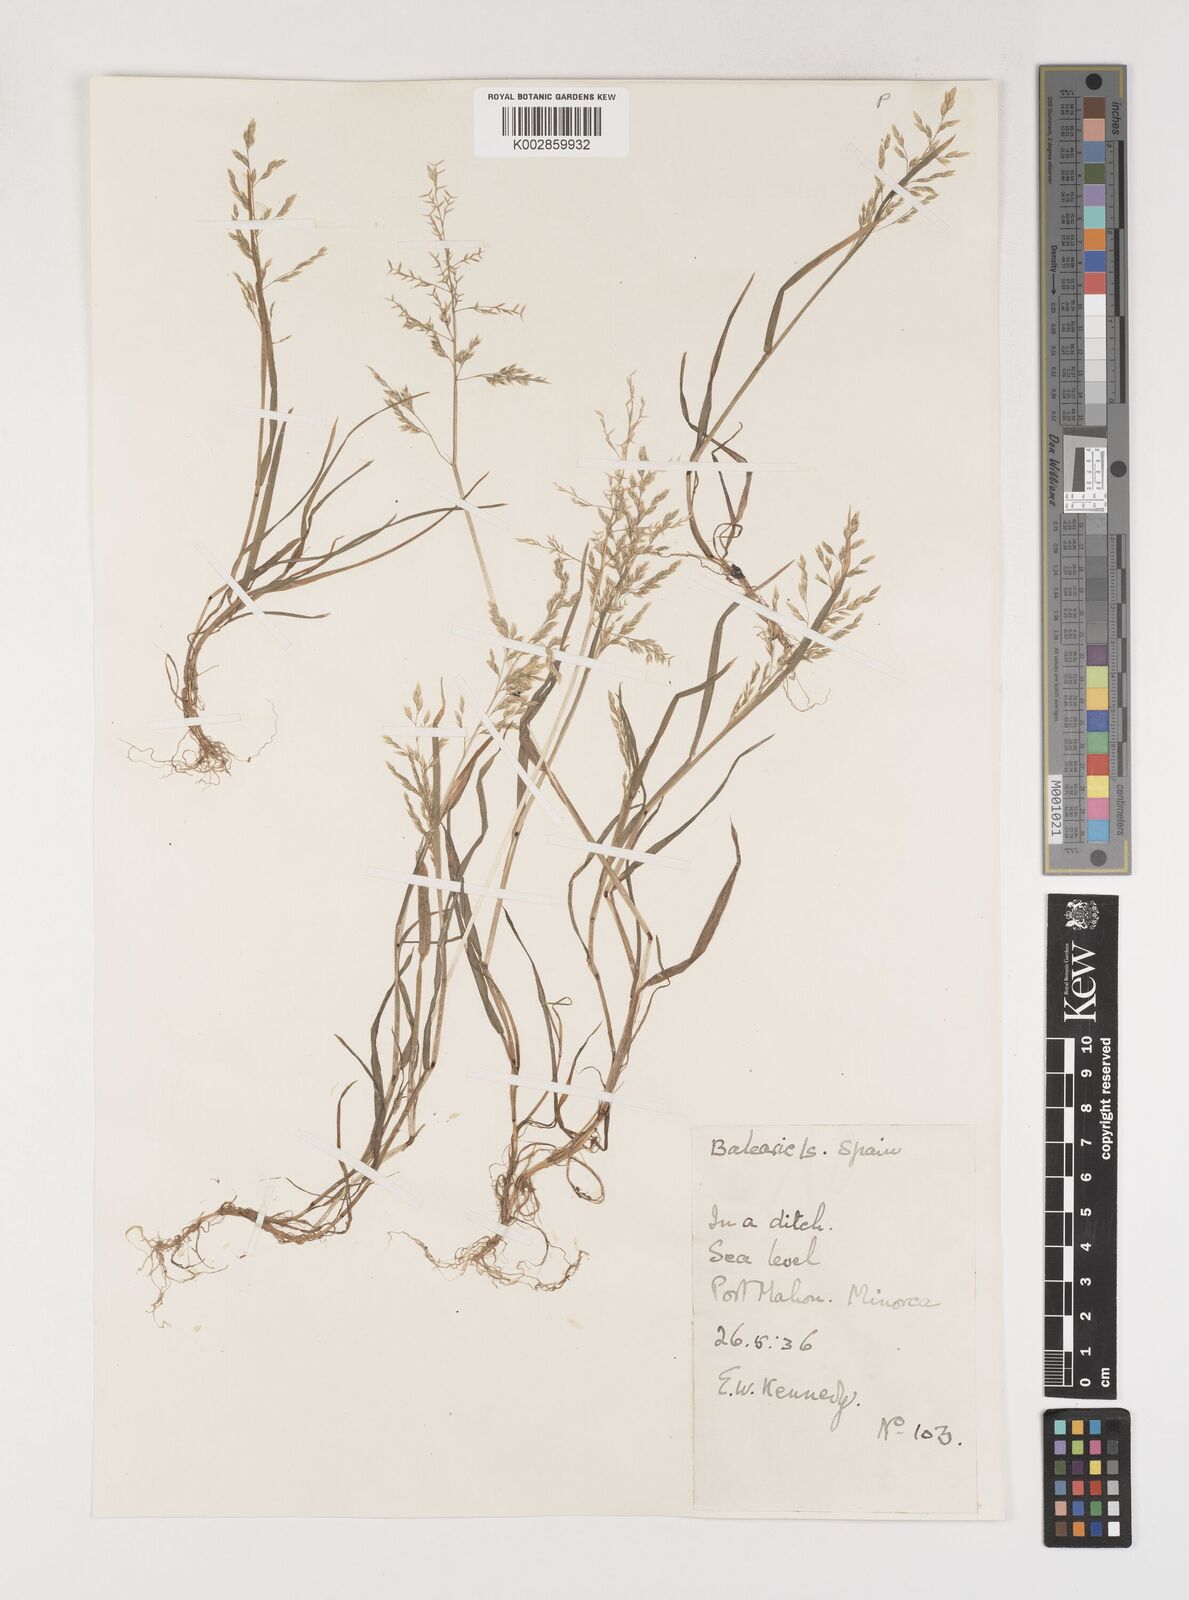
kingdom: Plantae
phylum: Tracheophyta
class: Liliopsida
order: Poales
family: Poaceae
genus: Poa
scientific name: Poa annua
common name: Annual bluegrass
